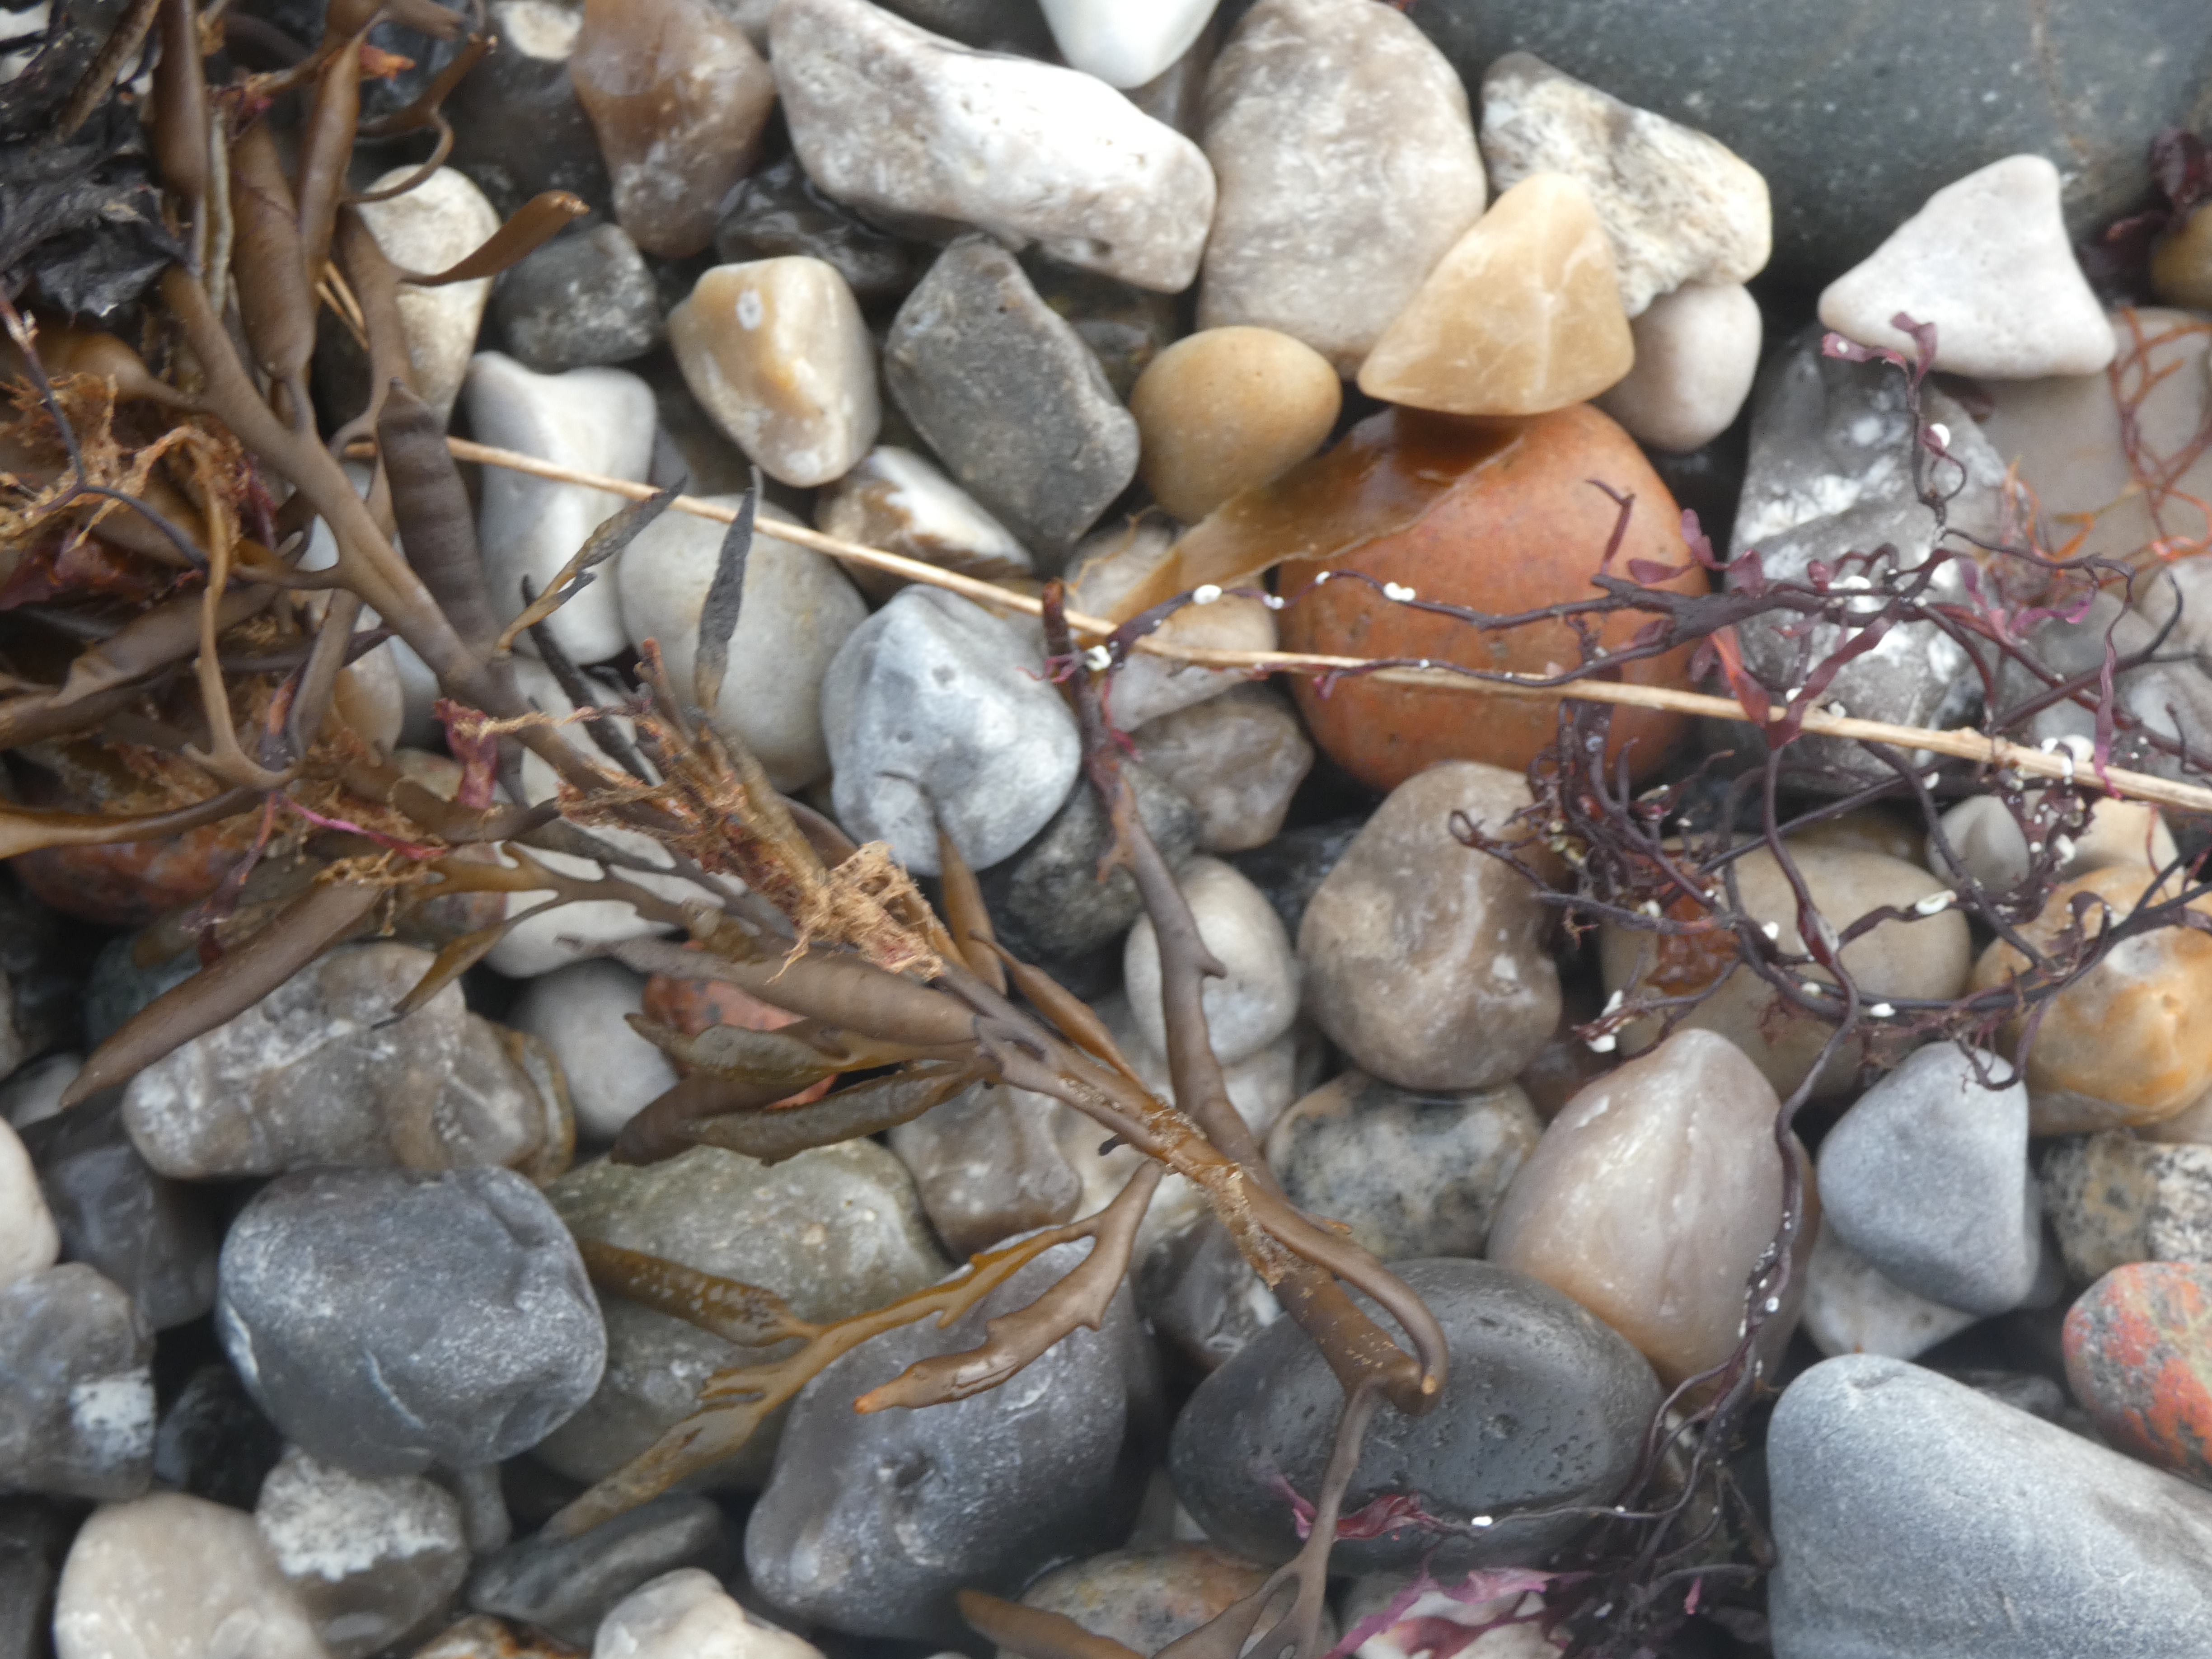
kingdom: Chromista
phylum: Ochrophyta
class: Phaeophyceae
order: Fucales
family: Sargassaceae
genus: Halidrys
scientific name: Halidrys siliquosa
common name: Skulpetang
